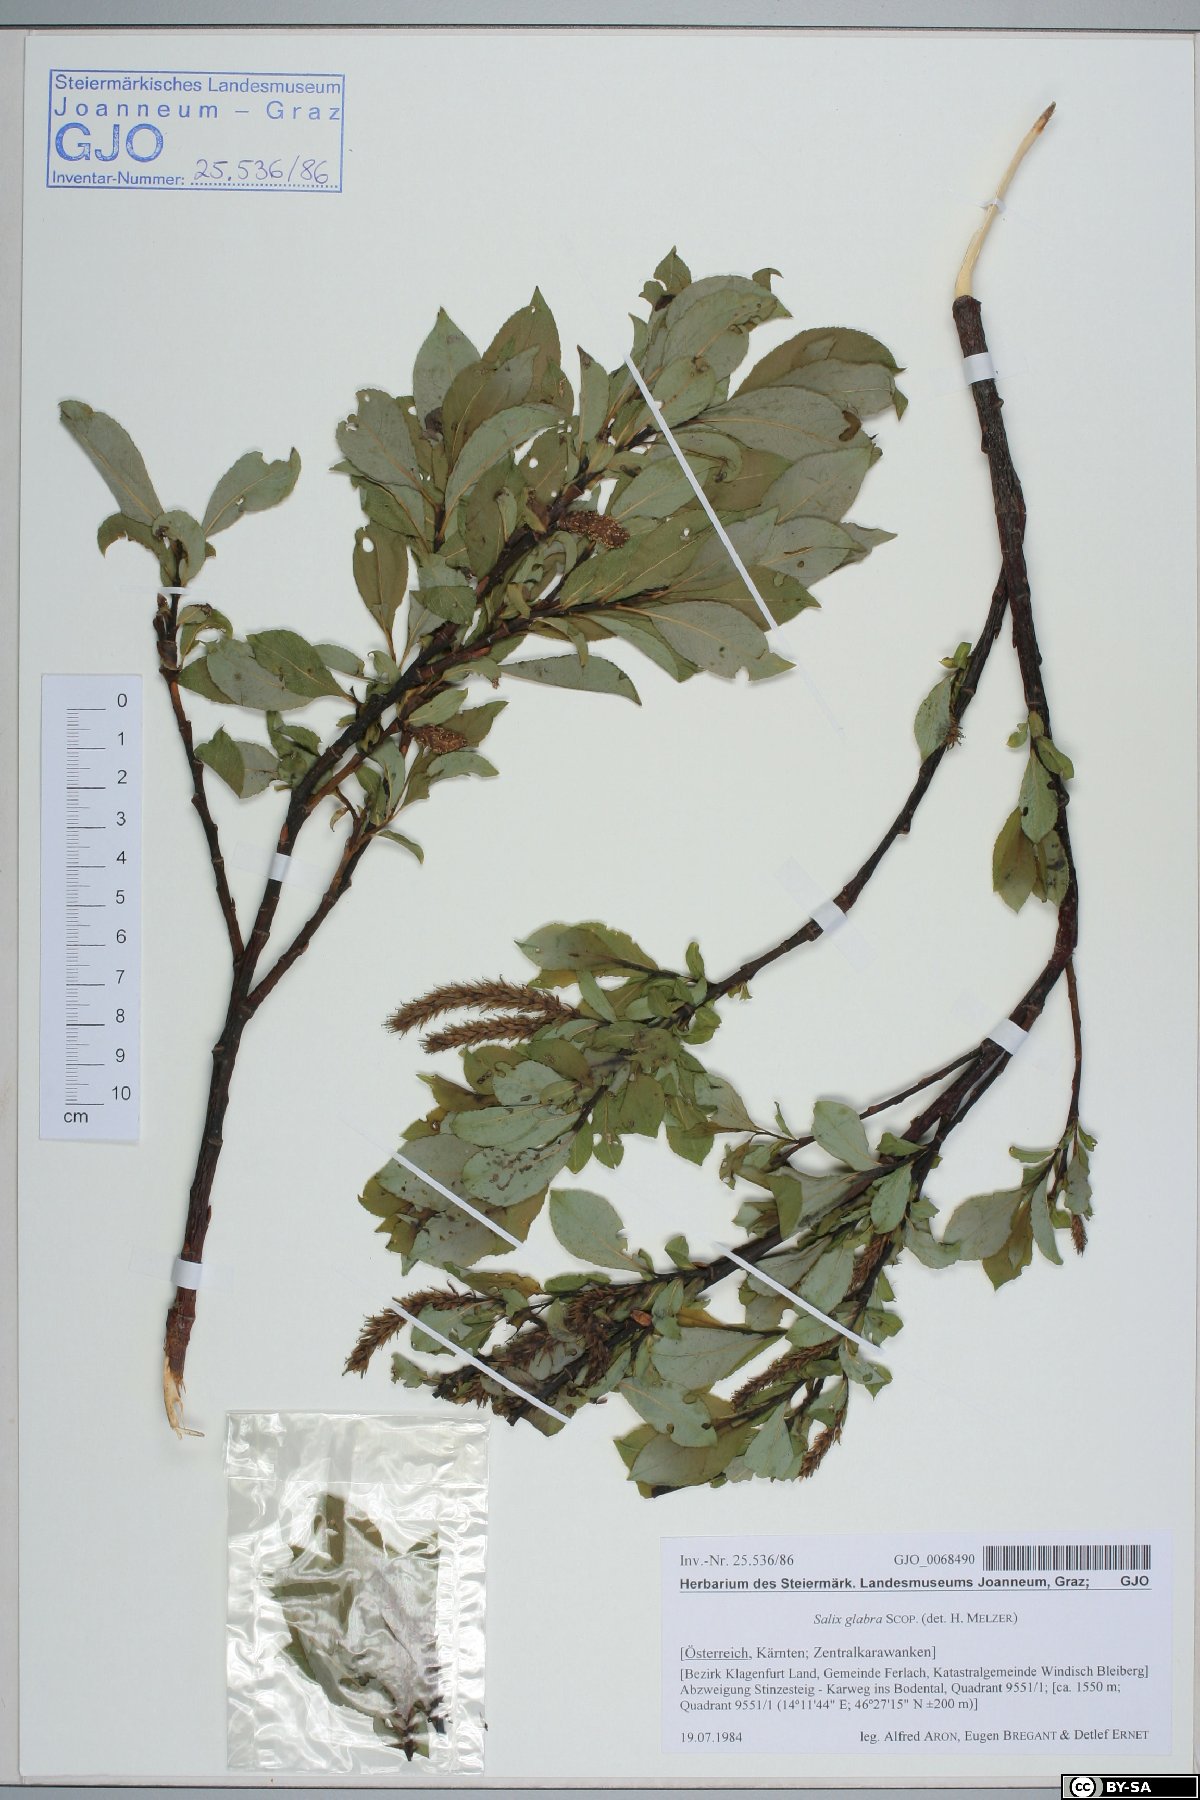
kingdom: Plantae
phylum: Tracheophyta
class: Magnoliopsida
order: Malpighiales
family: Salicaceae
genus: Salix
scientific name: Salix glabra
